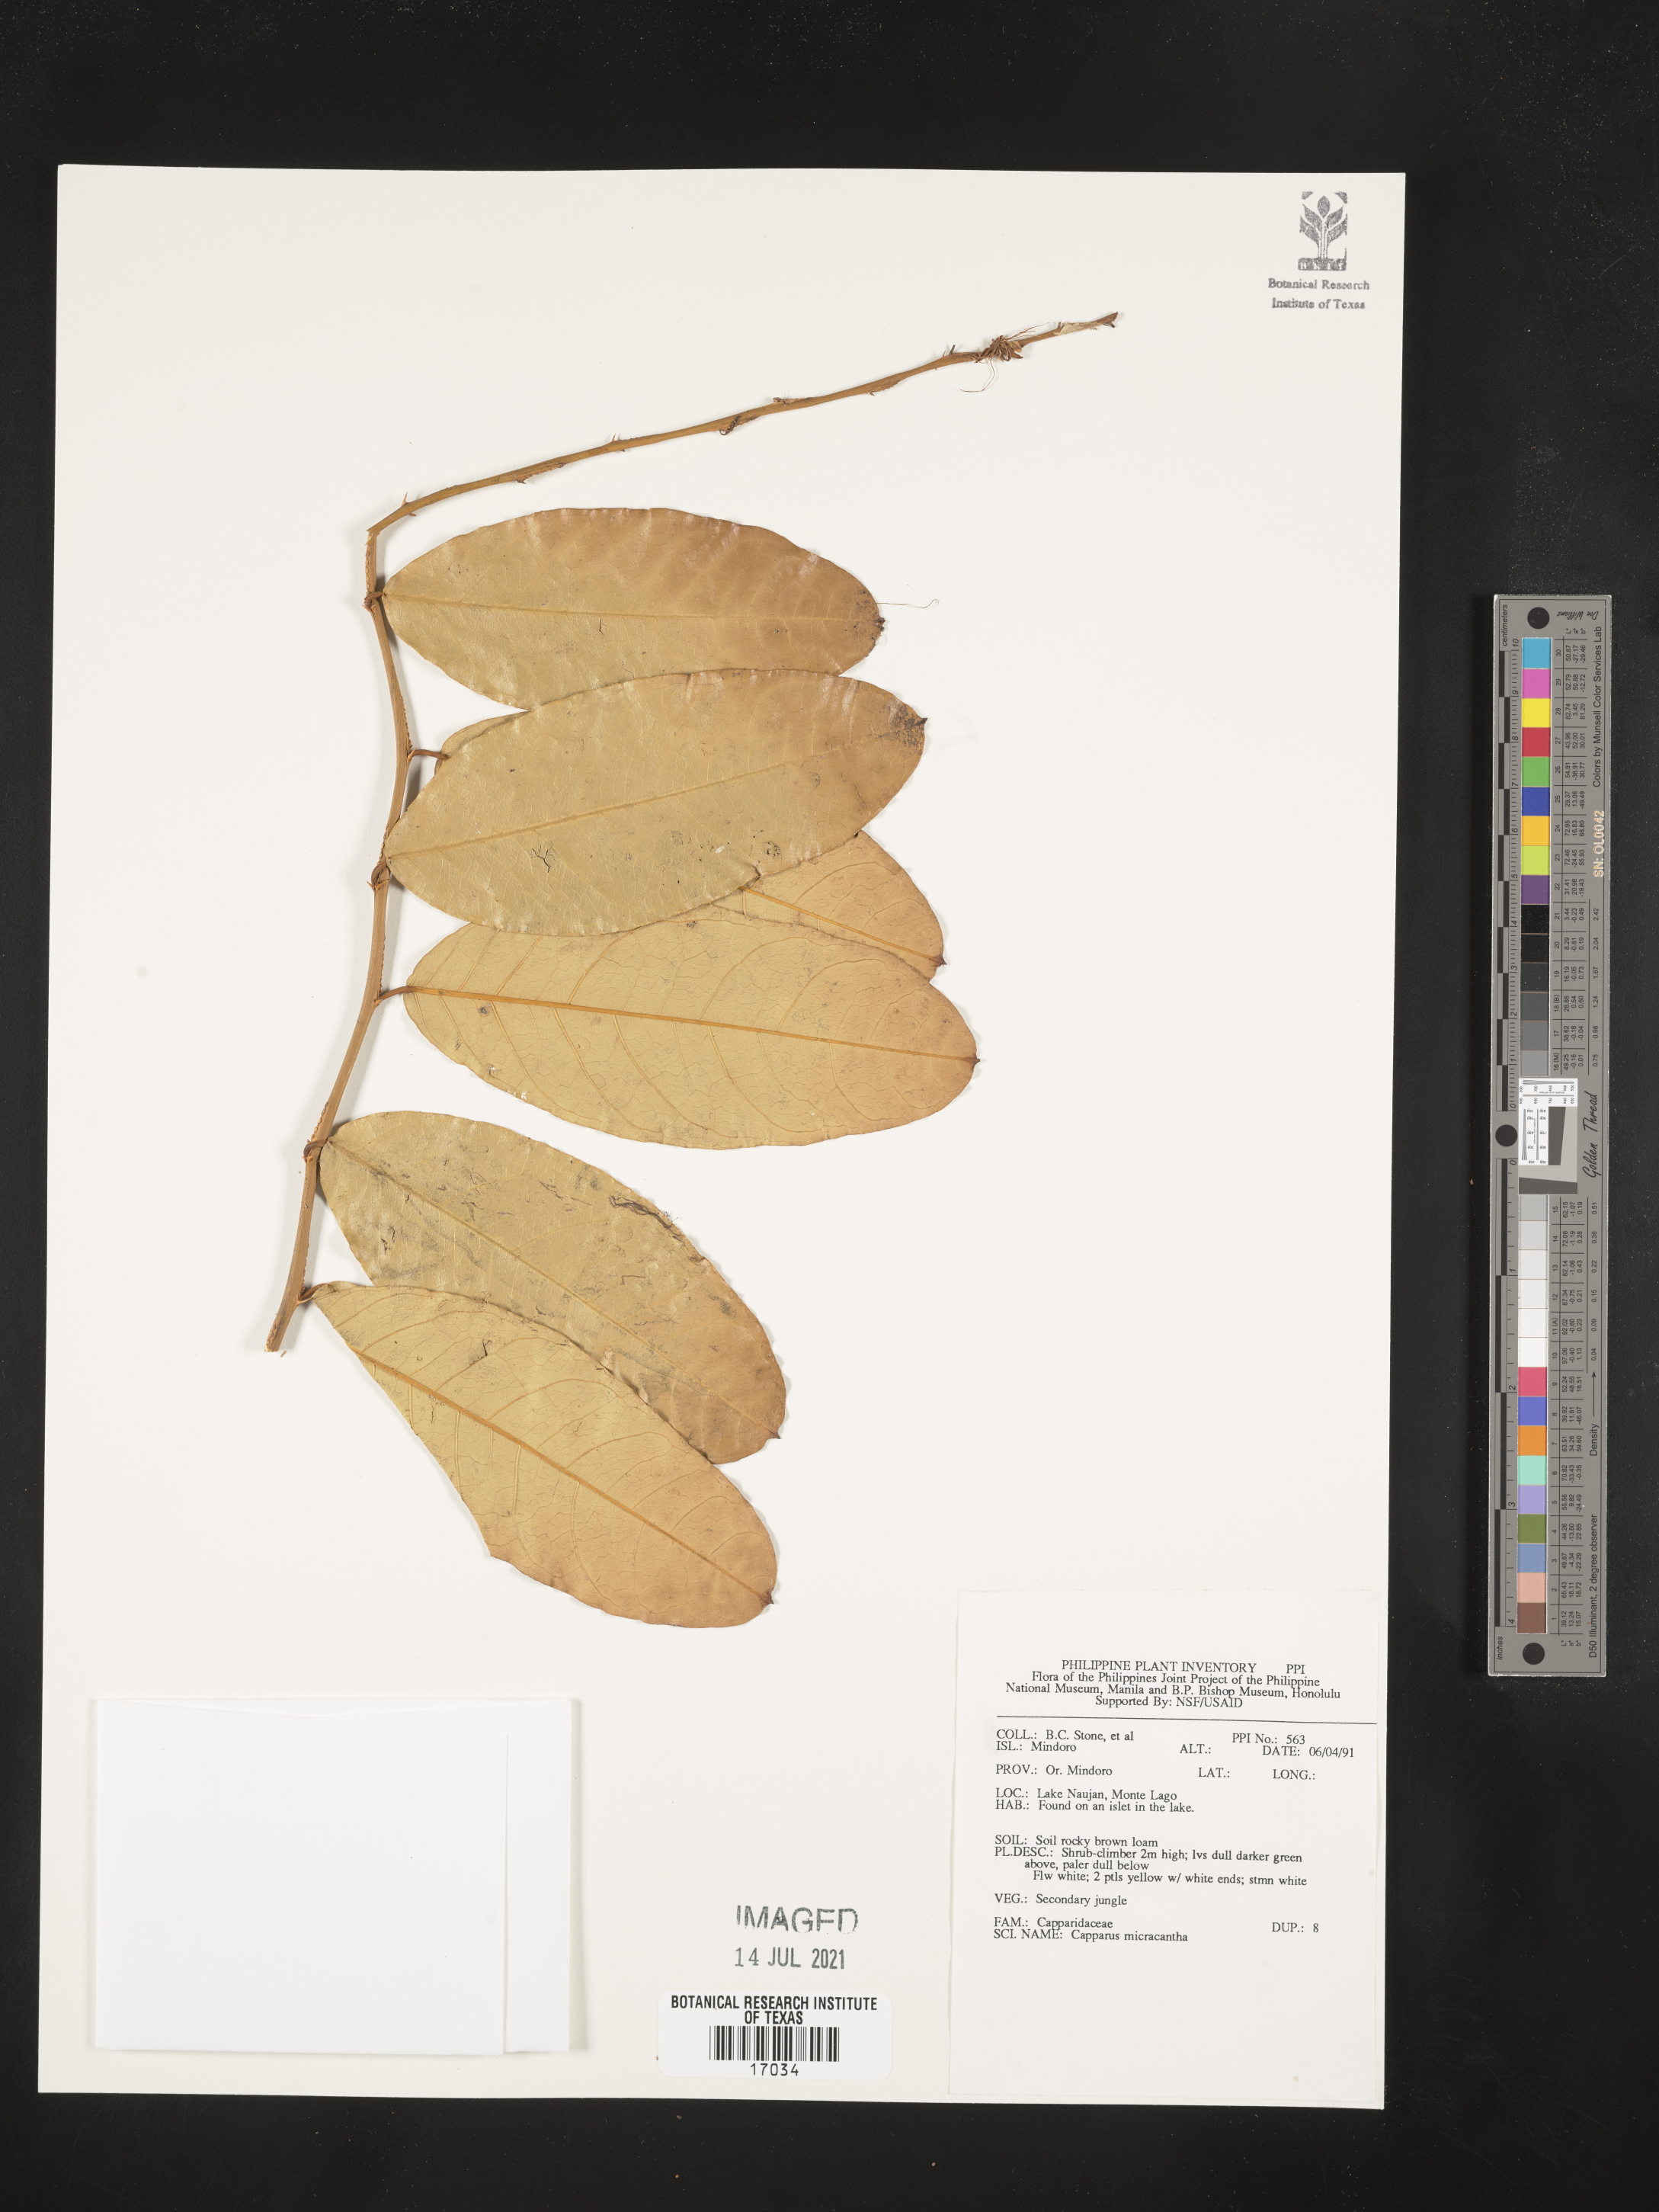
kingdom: Plantae
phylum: Tracheophyta
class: Magnoliopsida
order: Brassicales
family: Capparaceae
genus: Capparis
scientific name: Capparis micrantha
